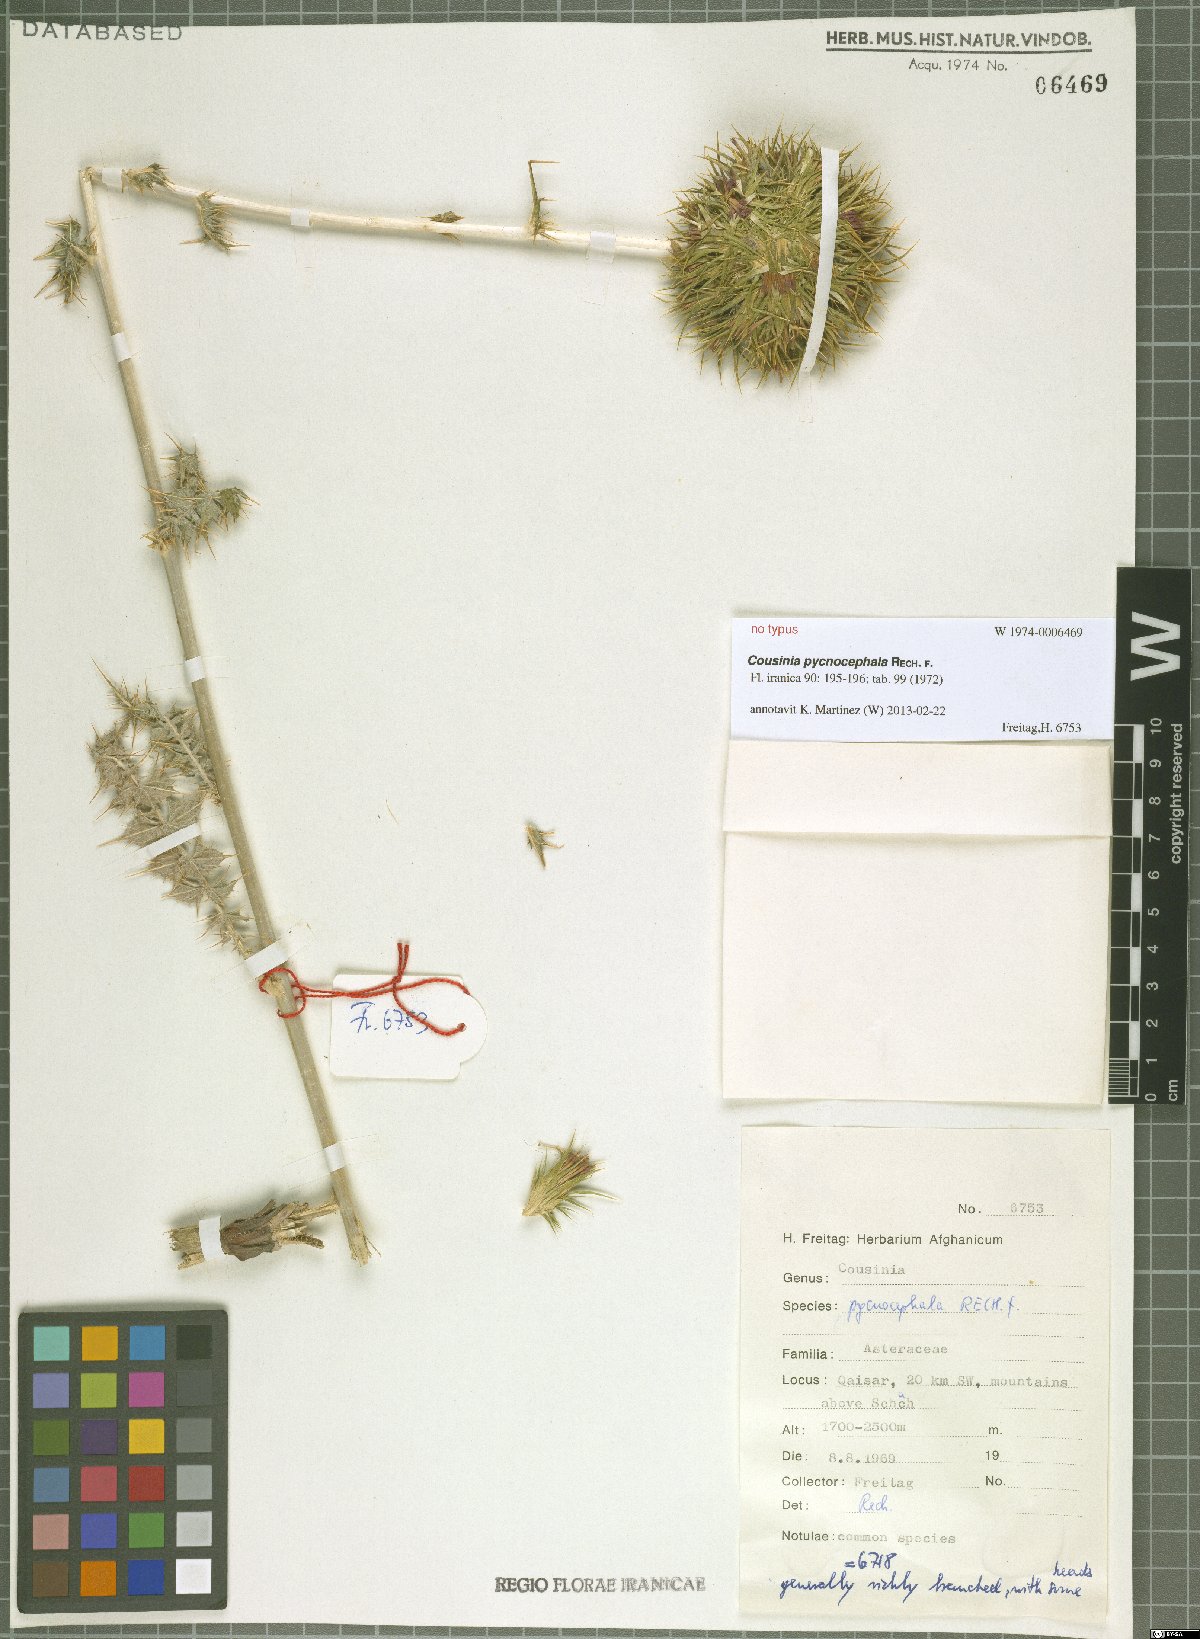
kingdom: Plantae
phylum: Tracheophyta
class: Magnoliopsida
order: Asterales
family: Asteraceae
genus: Cousinia
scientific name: Cousinia pycnocephala
